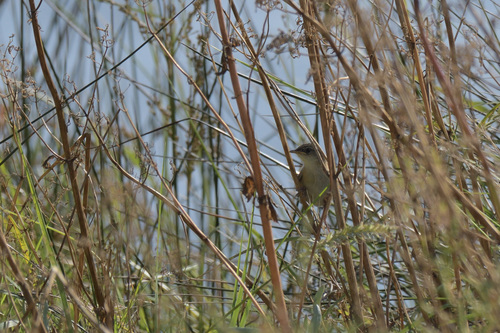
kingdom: Animalia
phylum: Chordata
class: Aves
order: Passeriformes
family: Cisticolidae
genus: Cisticola
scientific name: Cisticola juncidis
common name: Zitting cisticola
